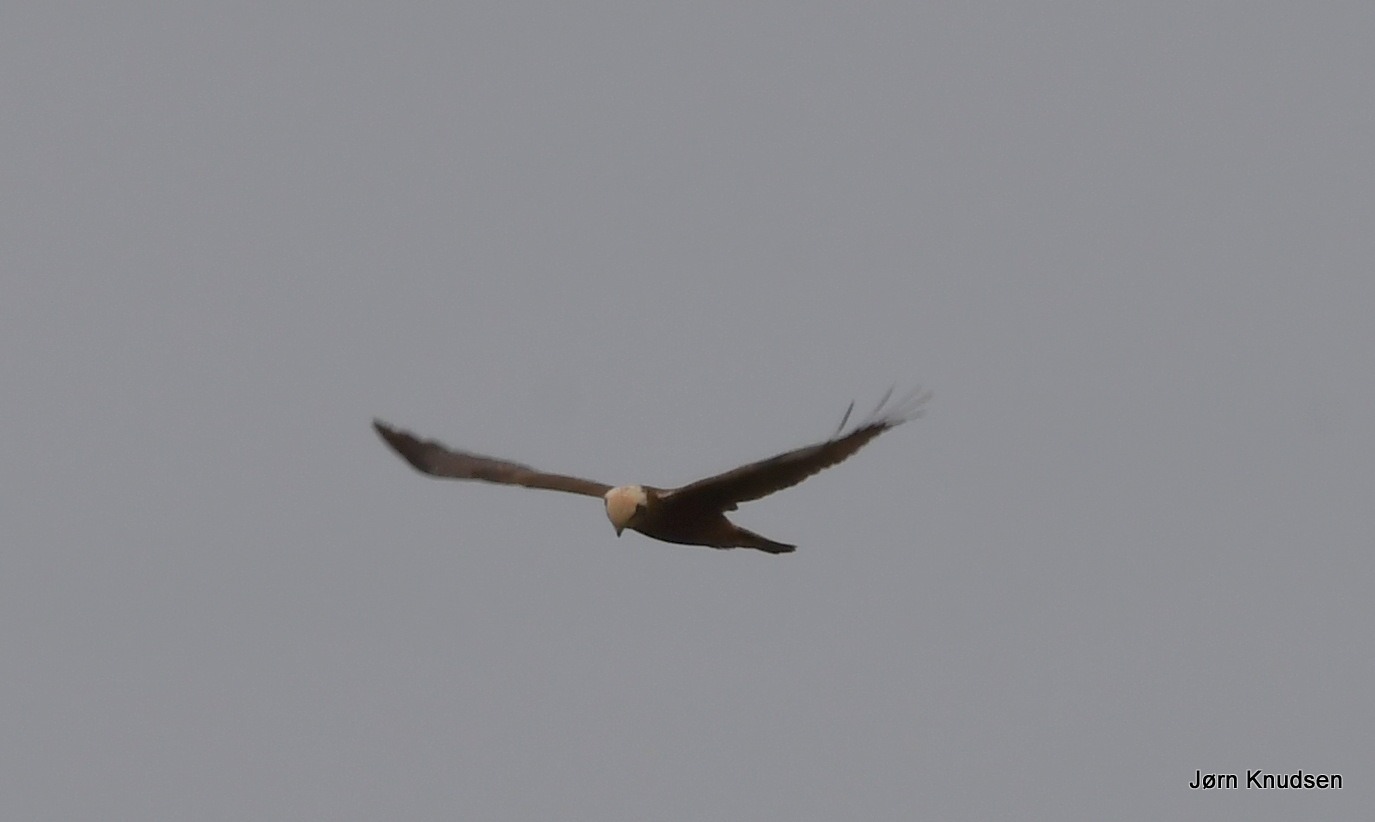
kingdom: Animalia
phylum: Chordata
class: Aves
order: Accipitriformes
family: Accipitridae
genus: Circus
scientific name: Circus aeruginosus
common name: Rørhøg
